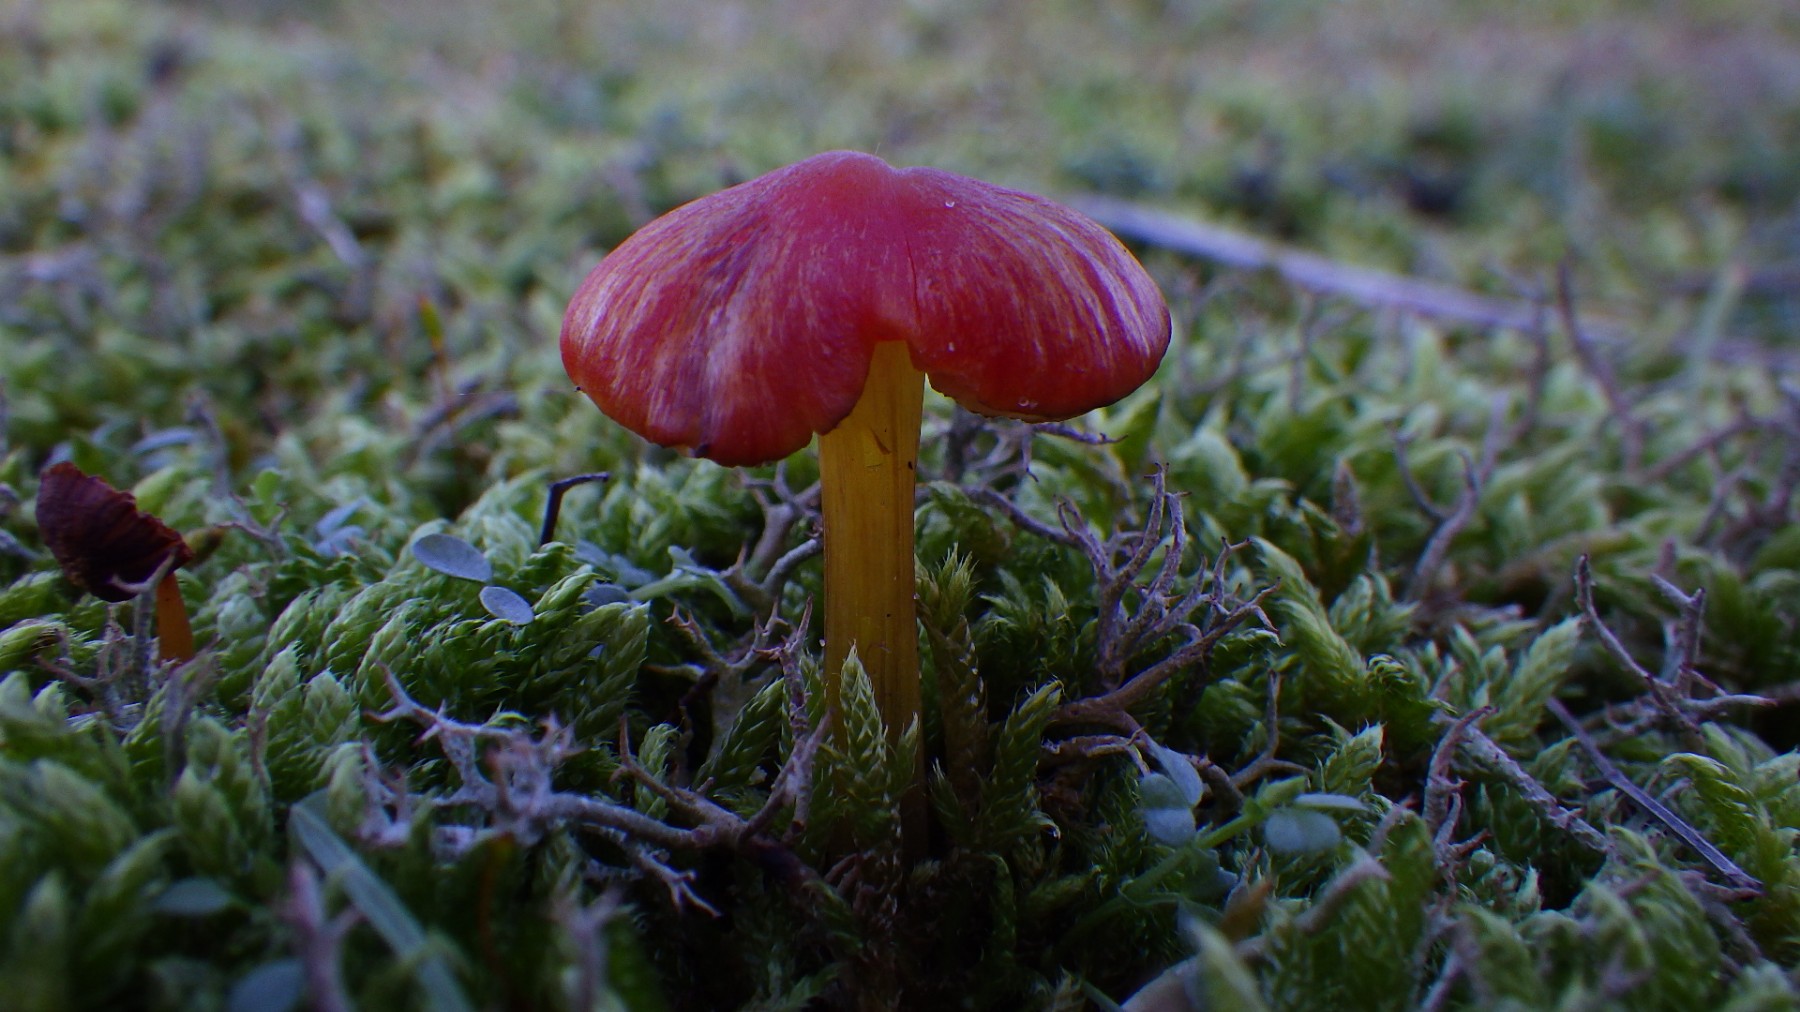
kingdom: Fungi
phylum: Basidiomycota
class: Agaricomycetes
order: Agaricales
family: Hygrophoraceae
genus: Hygrocybe
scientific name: Hygrocybe conicoides
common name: klit-vokshat
